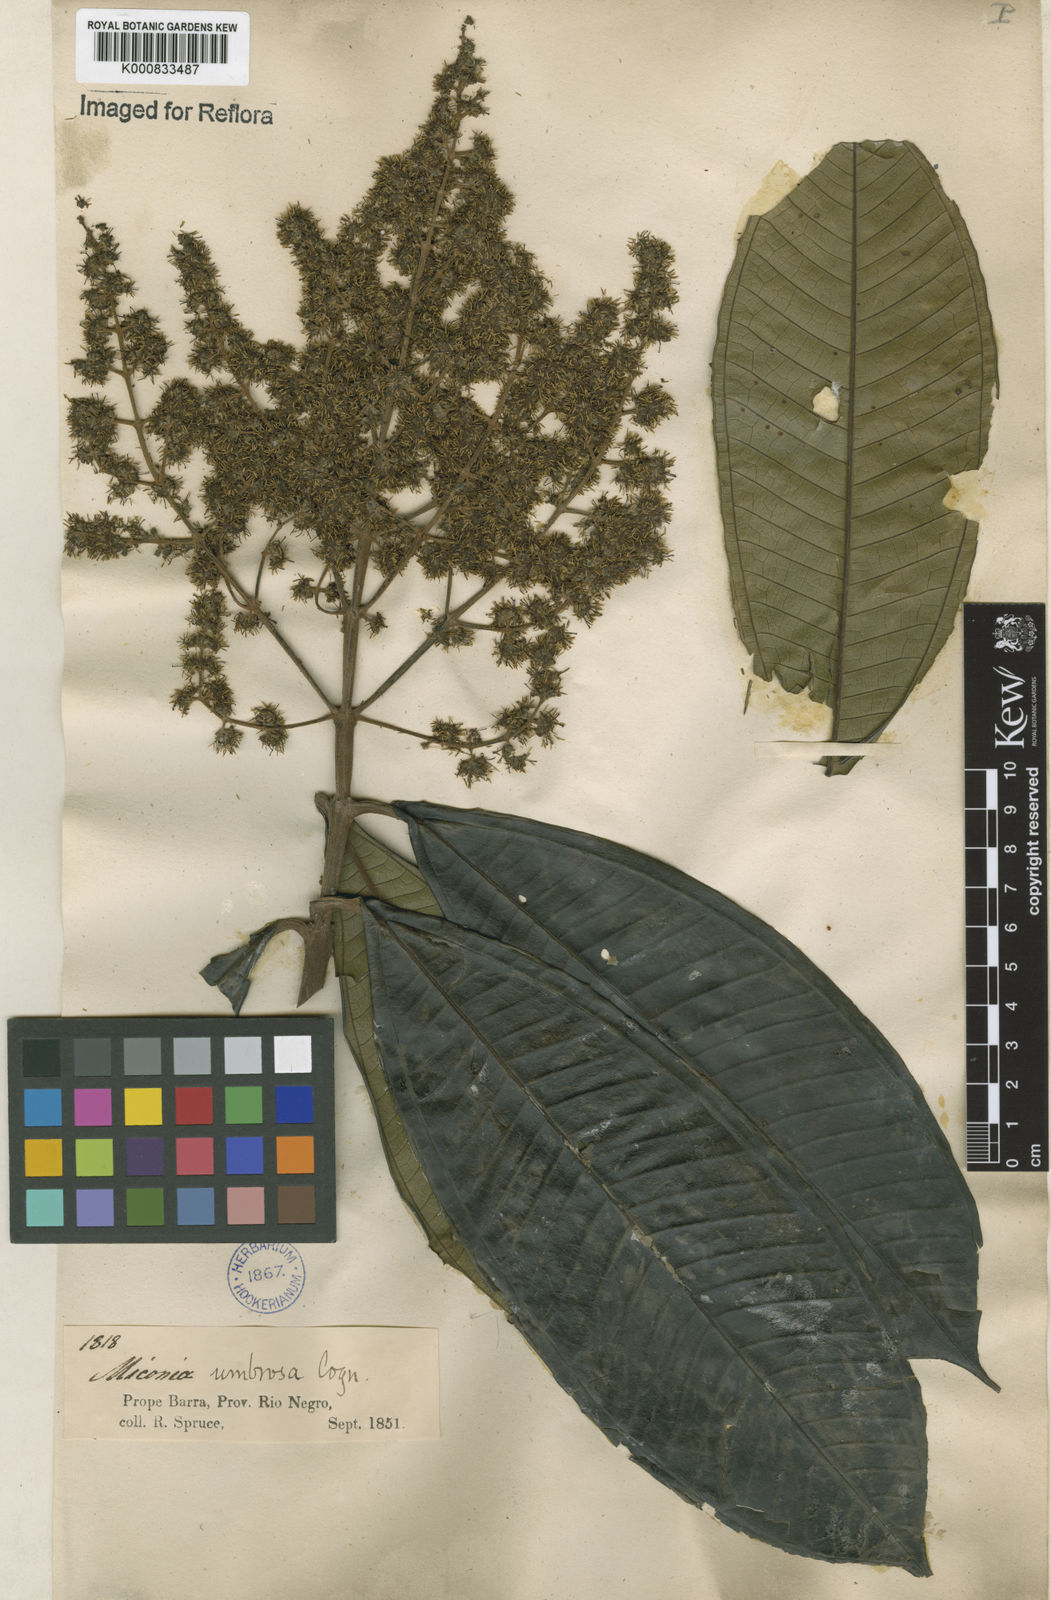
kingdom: Plantae
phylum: Tracheophyta
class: Magnoliopsida
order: Myrtales
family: Melastomataceae
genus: Miconia
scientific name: Miconia umbrosa
